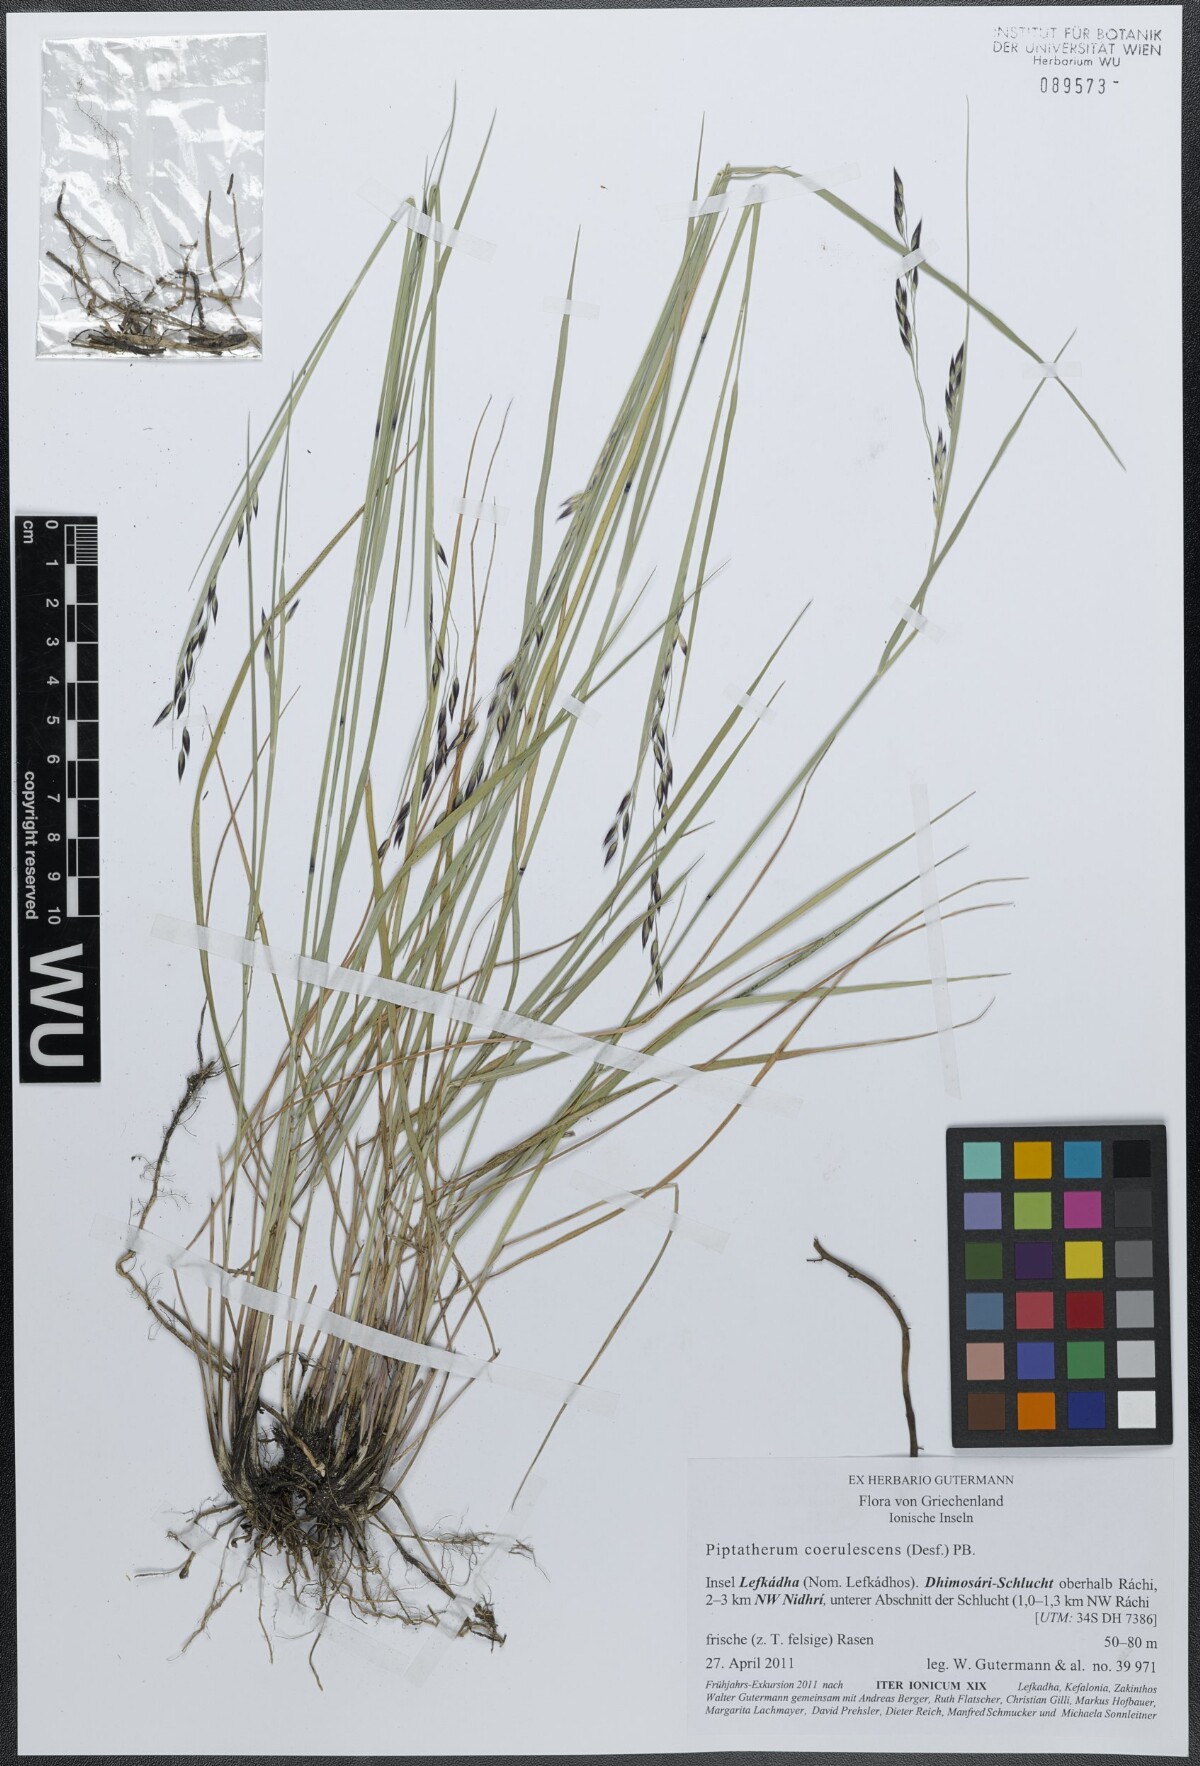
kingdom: Plantae
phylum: Tracheophyta
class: Liliopsida
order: Poales
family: Poaceae
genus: Piptatherum
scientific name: Piptatherum coerulescens
